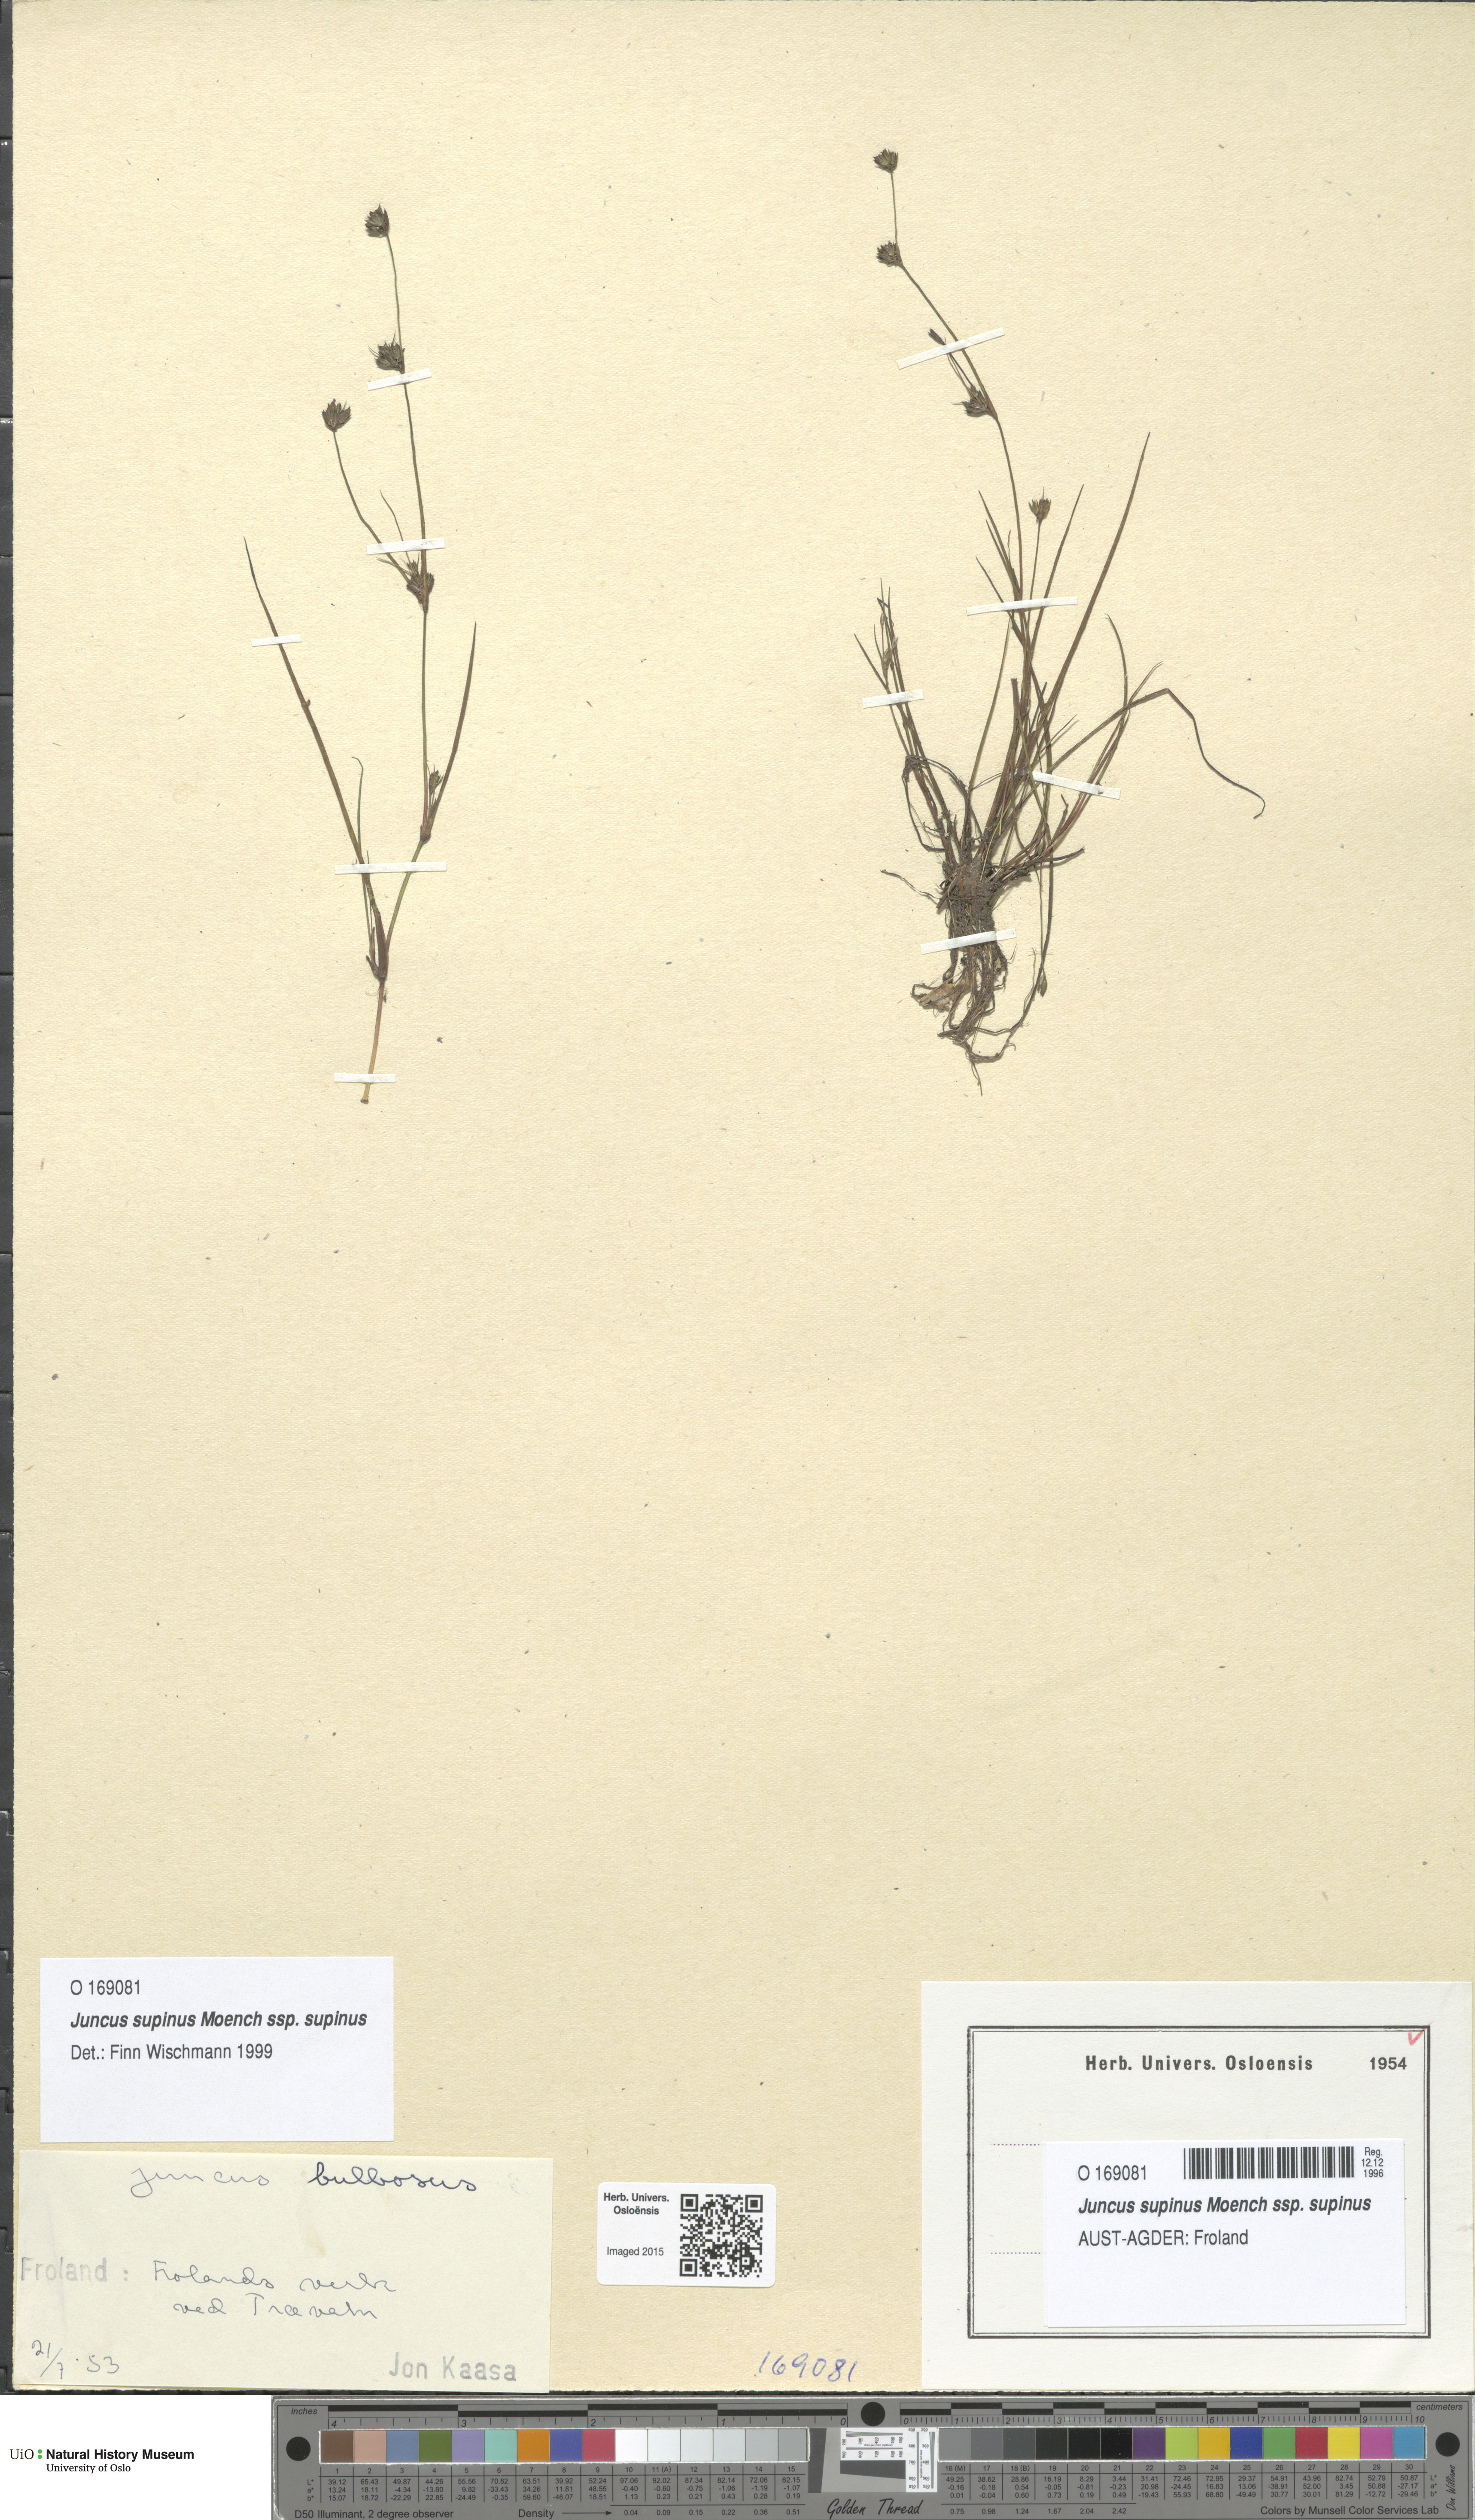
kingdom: Plantae
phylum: Tracheophyta
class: Liliopsida
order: Poales
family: Juncaceae
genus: Juncus
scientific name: Juncus bulbosus
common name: Bulbous rush
